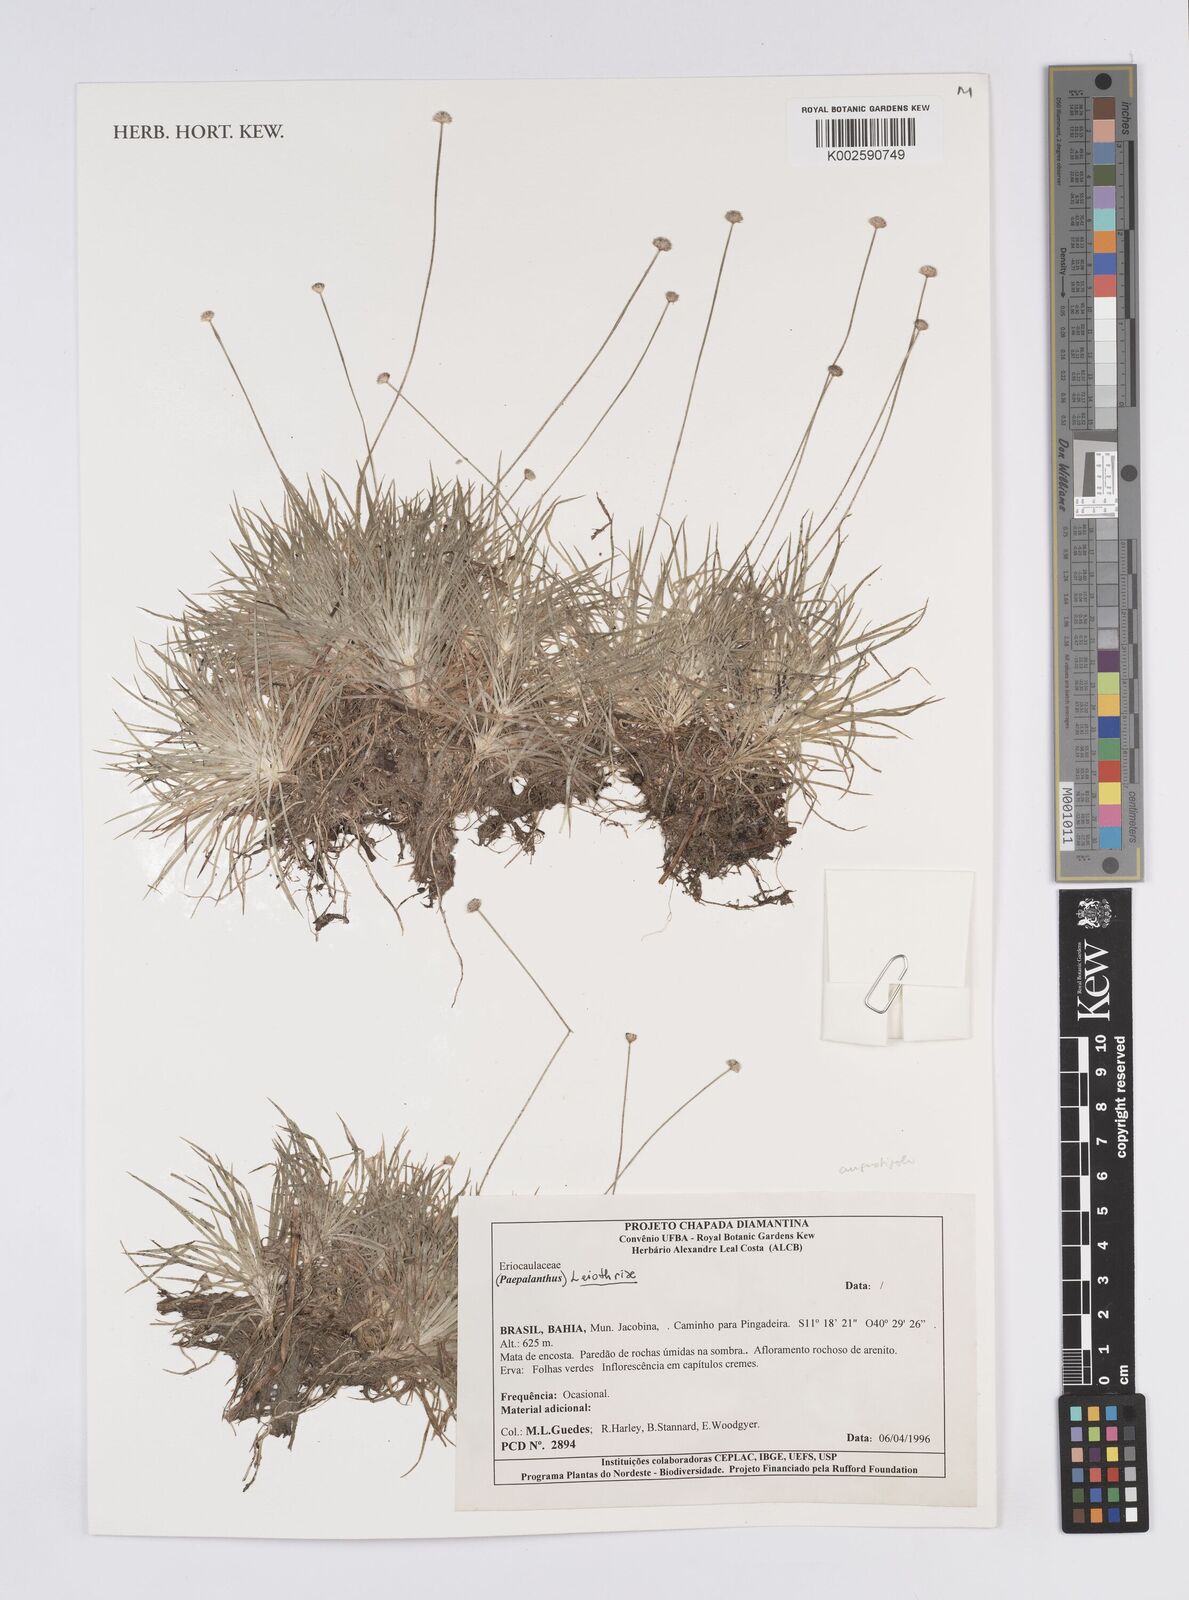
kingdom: Plantae
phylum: Tracheophyta
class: Liliopsida
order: Poales
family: Eriocaulaceae
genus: Leiothrix
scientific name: Leiothrix distichoclada
